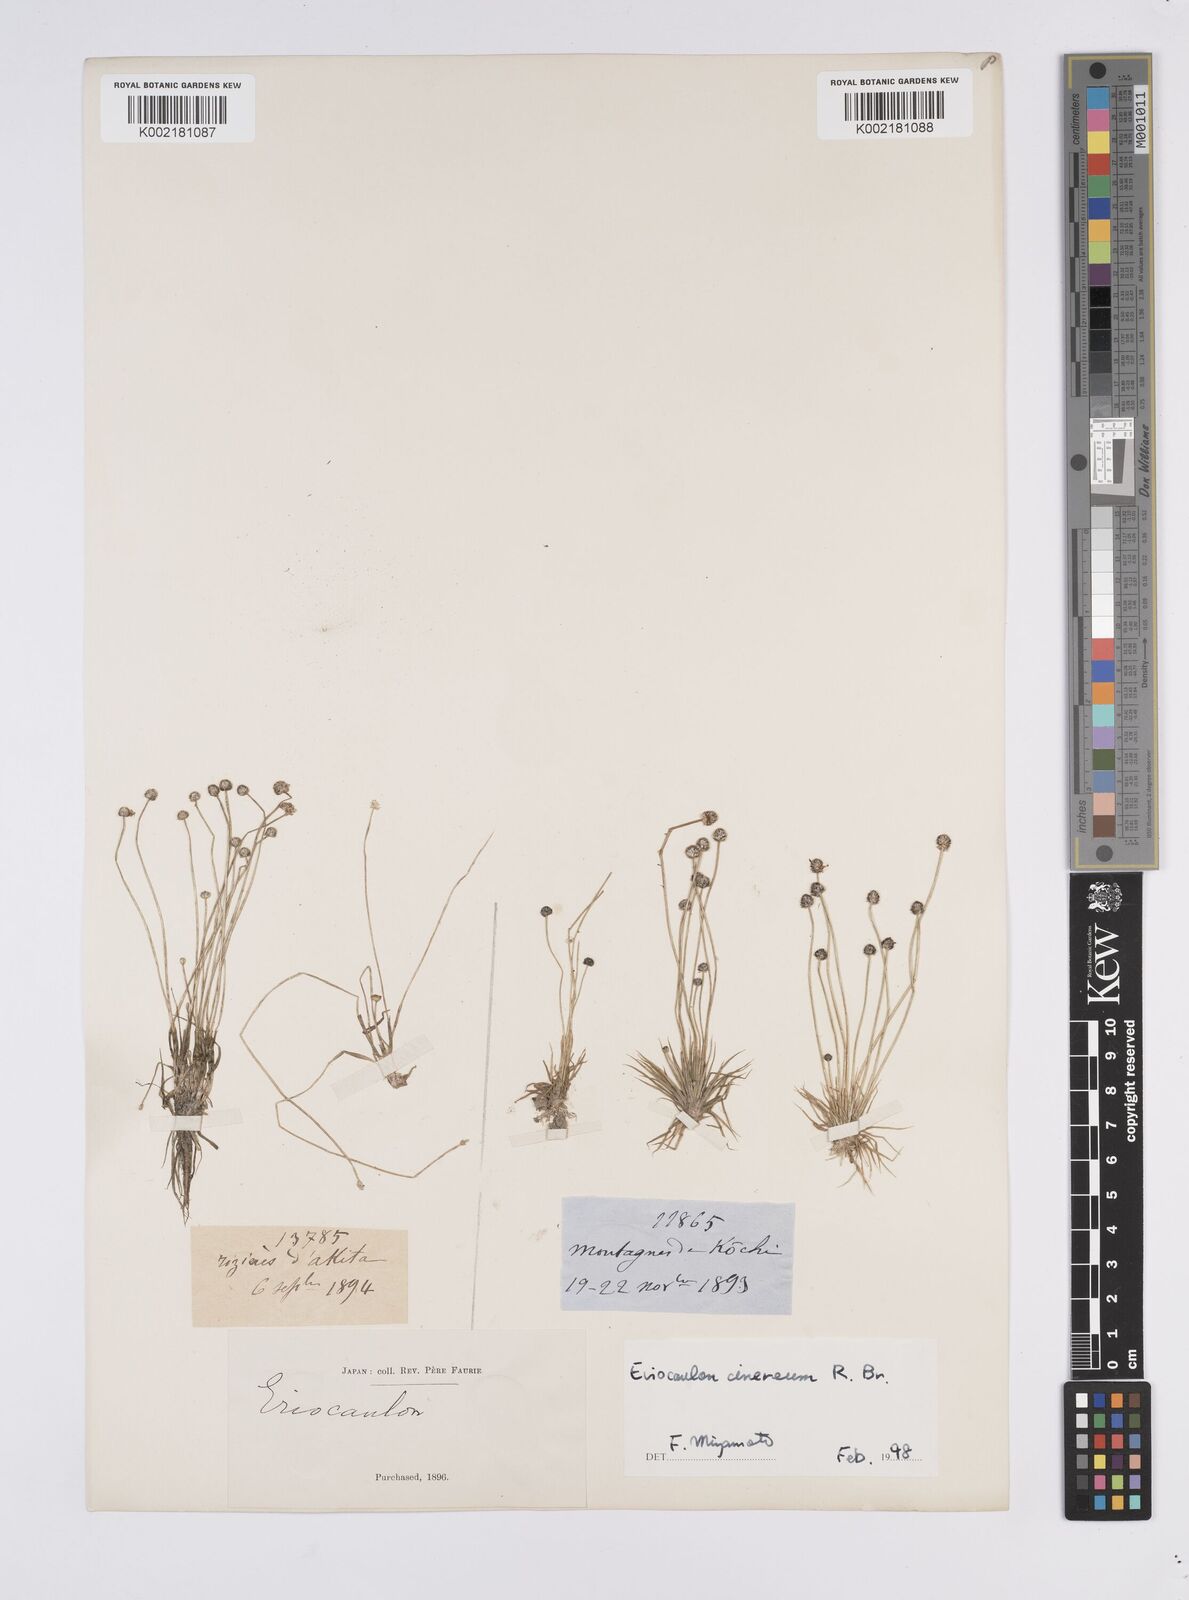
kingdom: Plantae
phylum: Tracheophyta
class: Liliopsida
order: Poales
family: Eriocaulaceae
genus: Eriocaulon
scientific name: Eriocaulon
